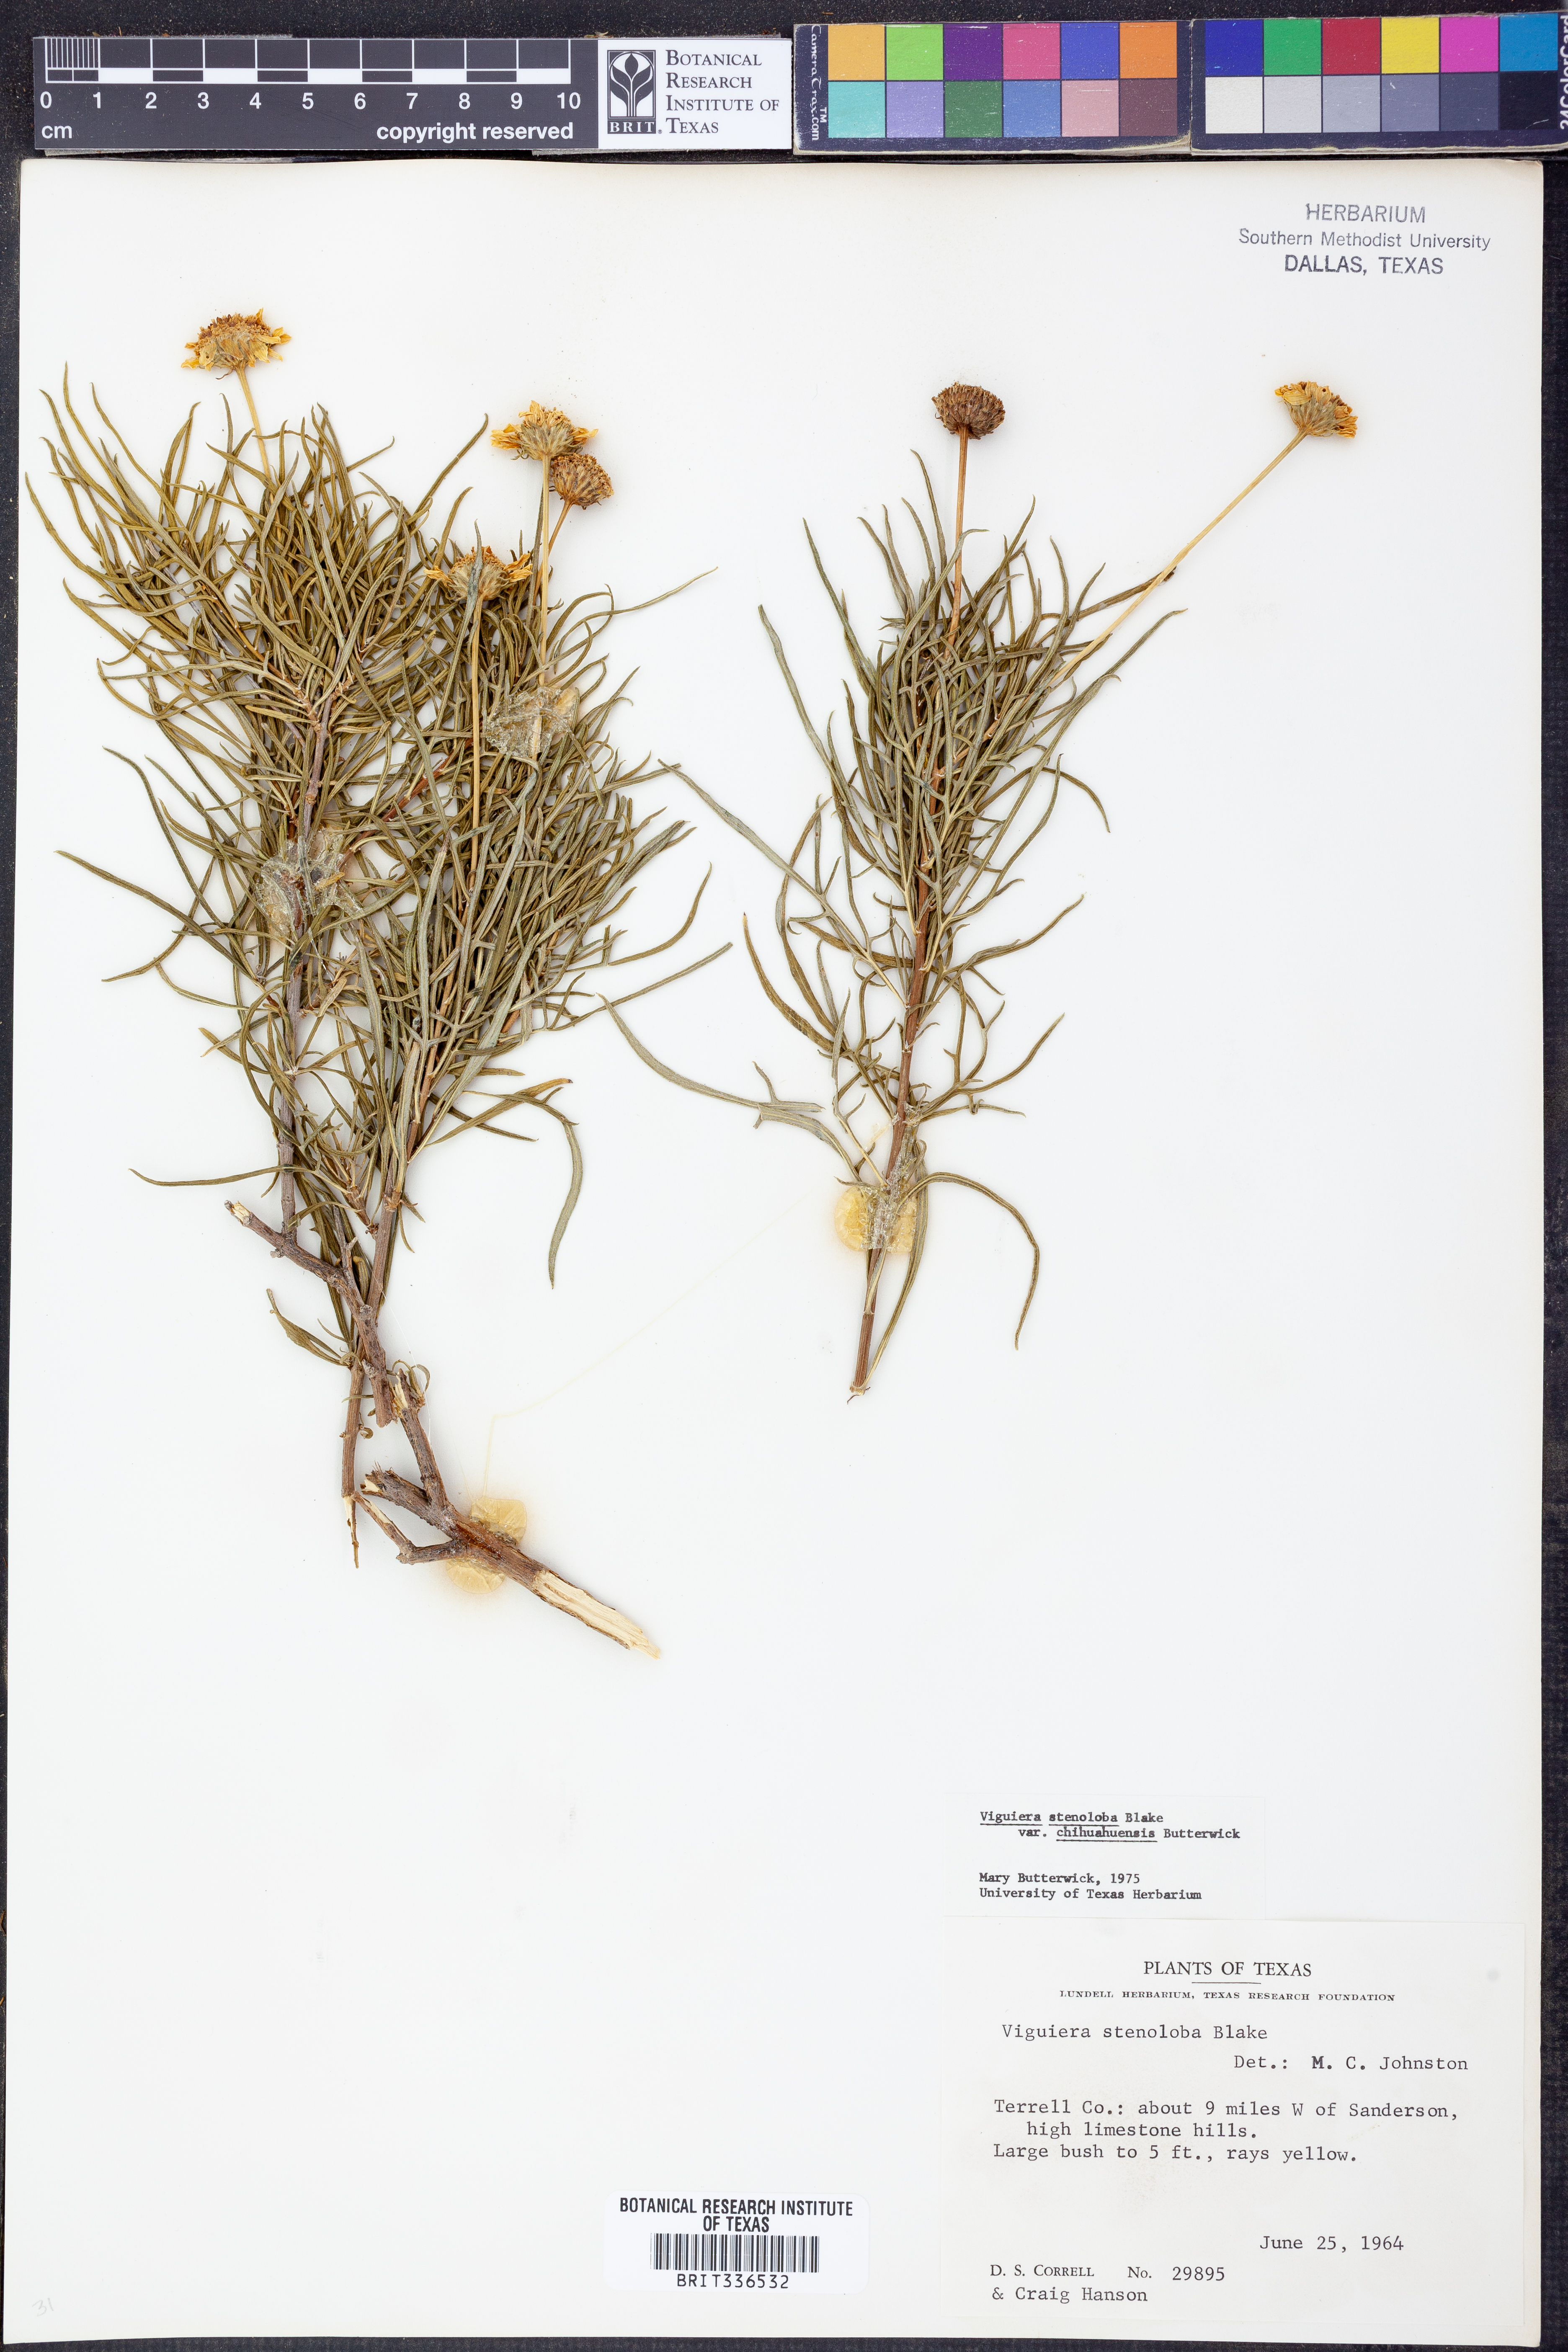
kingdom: Plantae
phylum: Tracheophyta
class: Magnoliopsida
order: Asterales
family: Asteraceae
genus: Sidneya
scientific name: Sidneya tenuifolia
